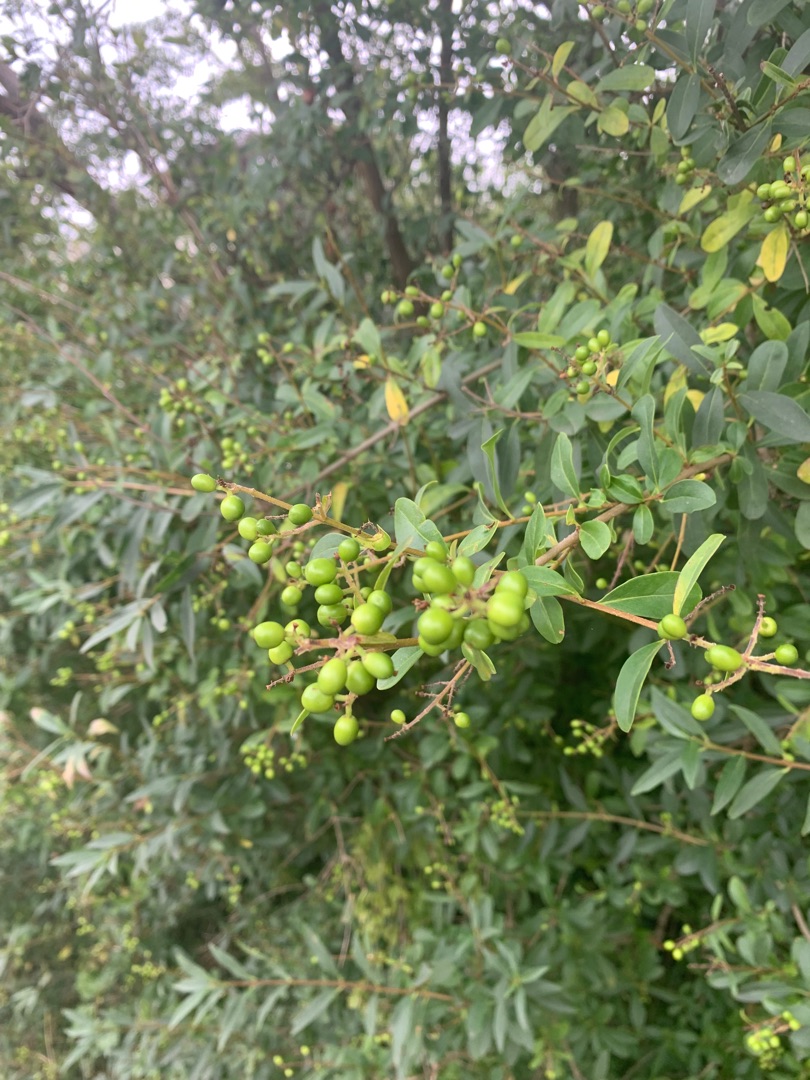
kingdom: Plantae
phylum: Tracheophyta
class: Magnoliopsida
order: Lamiales
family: Oleaceae
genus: Ligustrum
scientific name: Ligustrum vulgare
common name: Liguster
